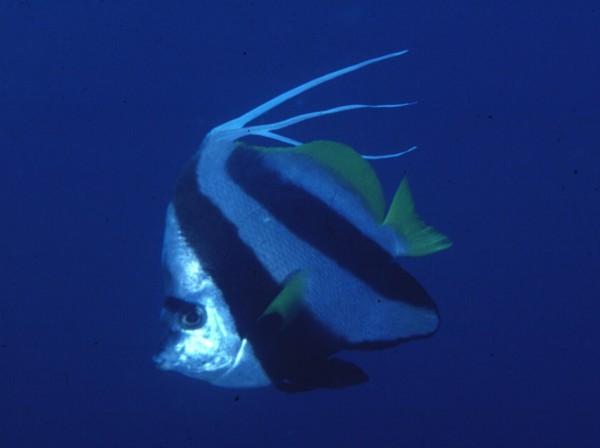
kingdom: Animalia
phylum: Chordata
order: Perciformes
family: Chaetodontidae
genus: Heniochus
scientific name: Heniochus acuminatus
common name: Pennant coralfish
